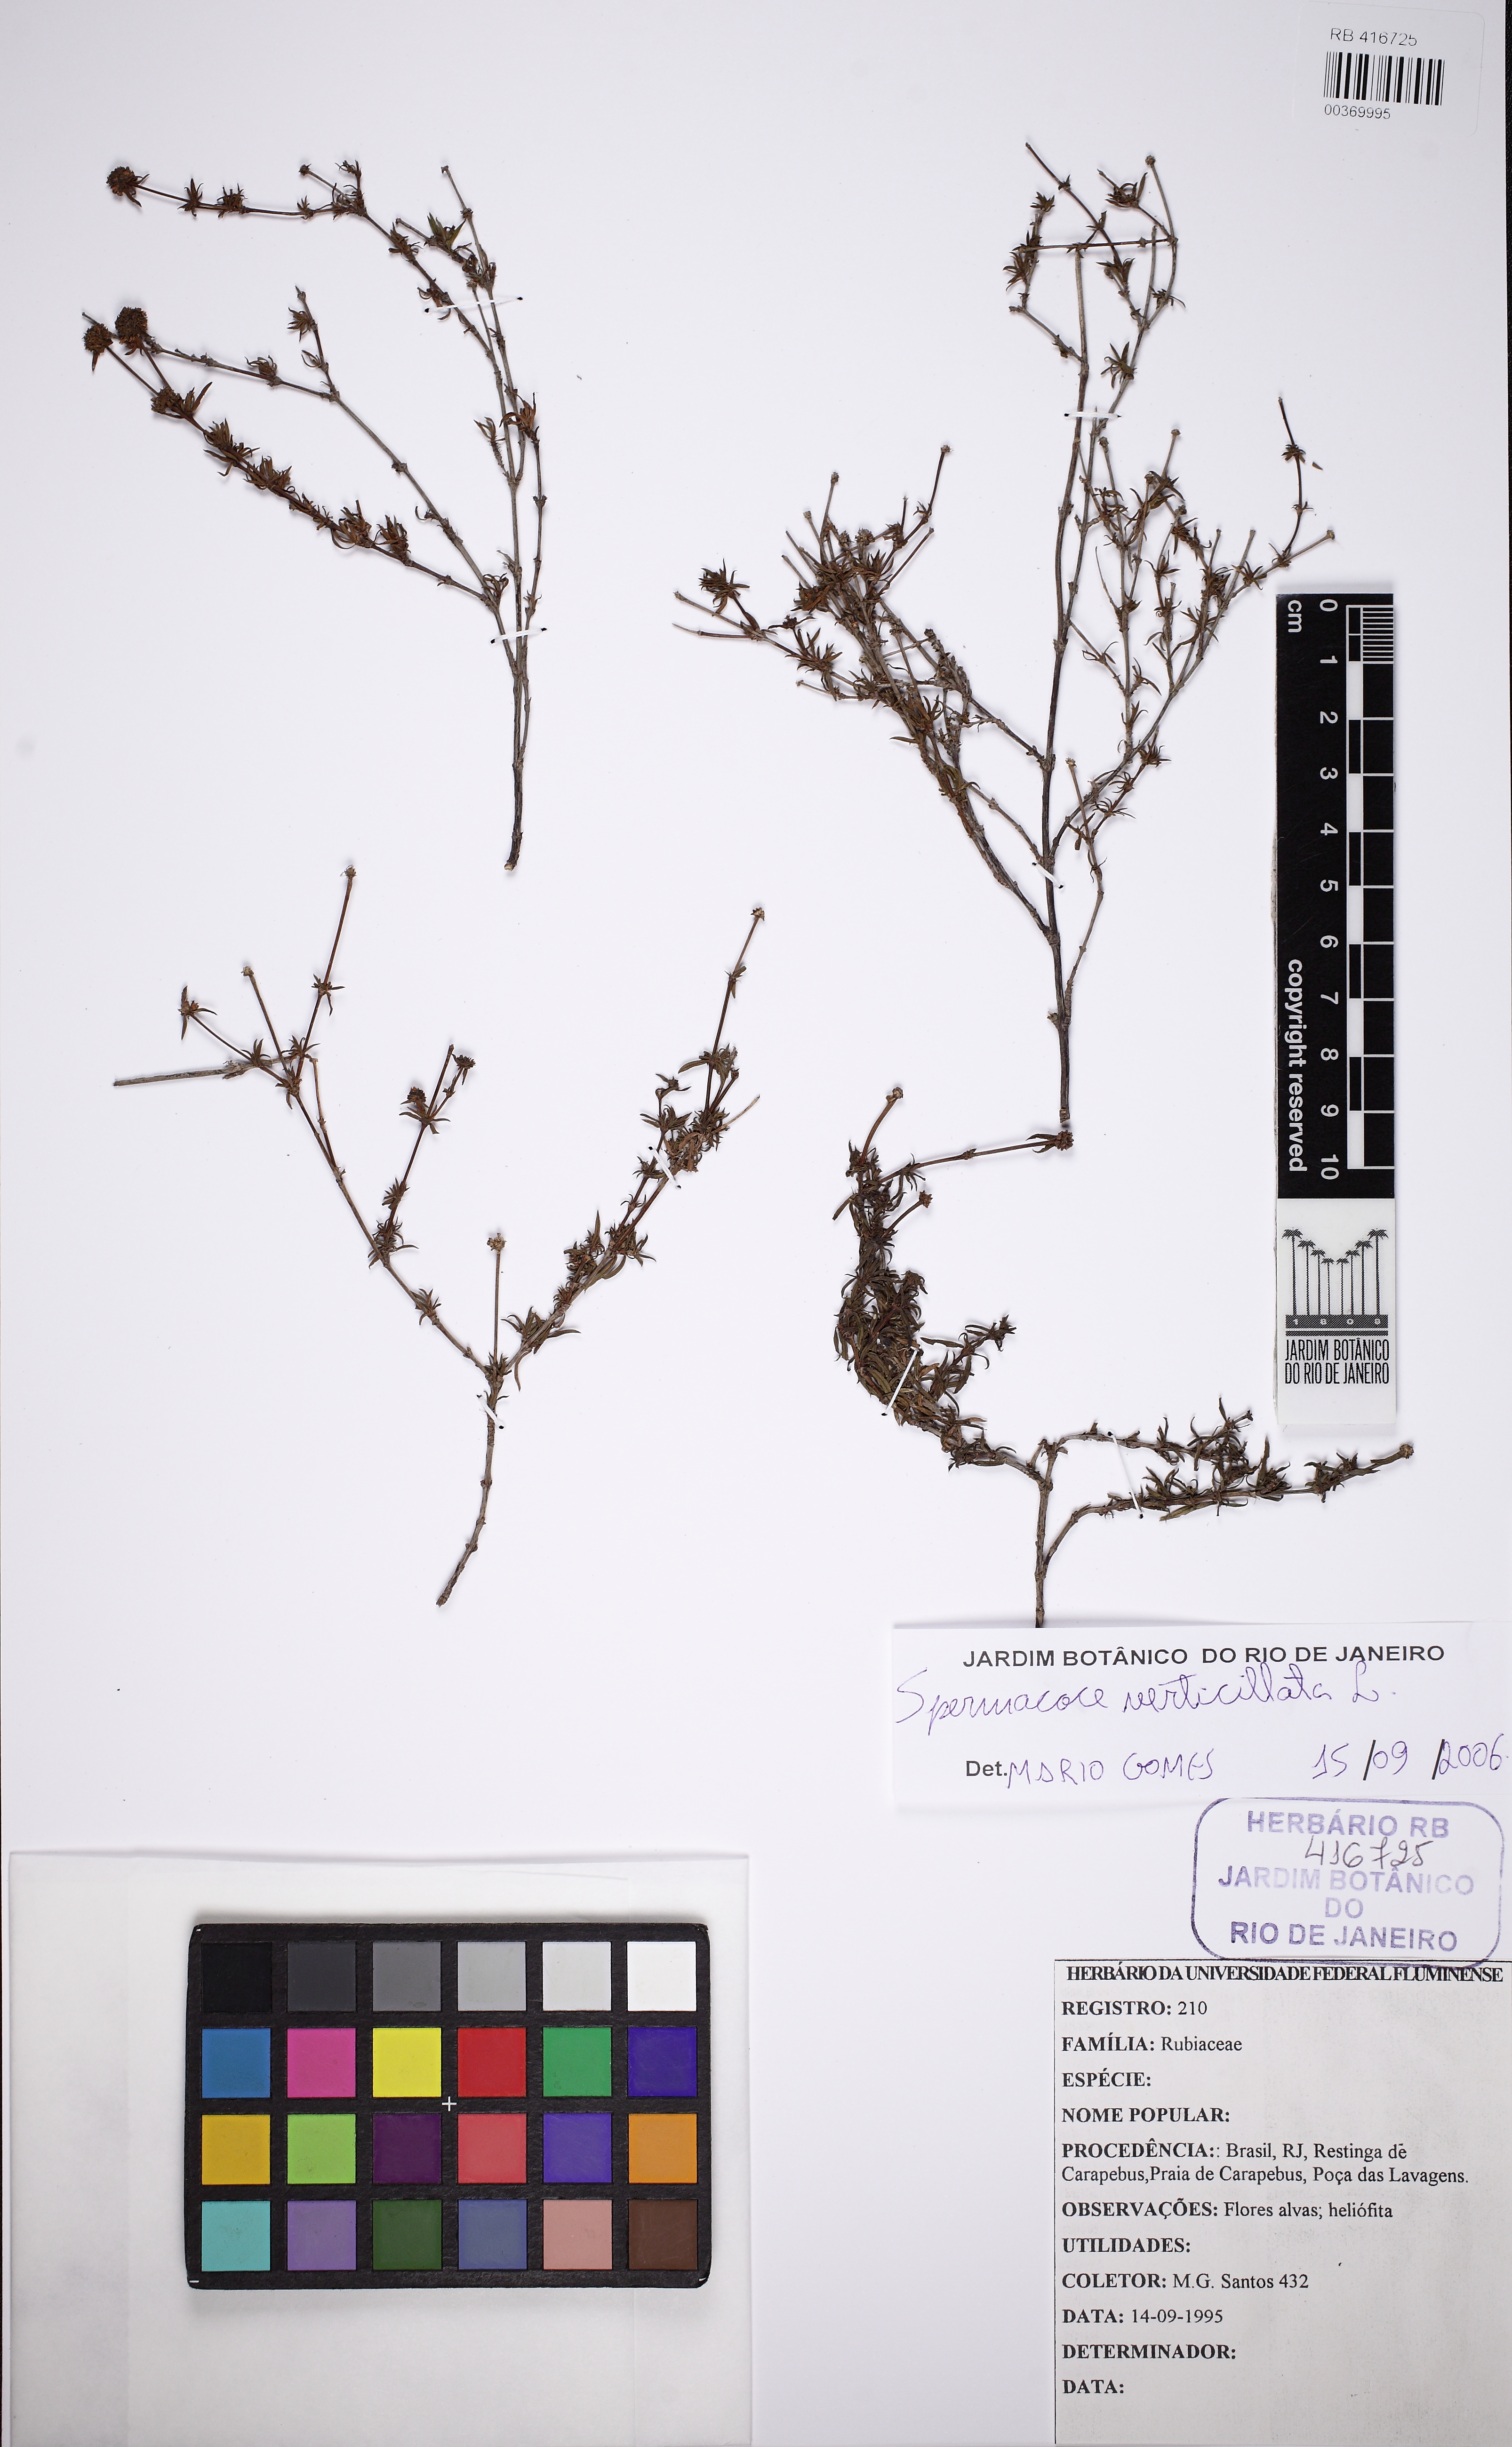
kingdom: Plantae
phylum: Tracheophyta
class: Magnoliopsida
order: Gentianales
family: Rubiaceae
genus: Spermacoce
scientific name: Spermacoce verticillata
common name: Shrubby false buttonweed
